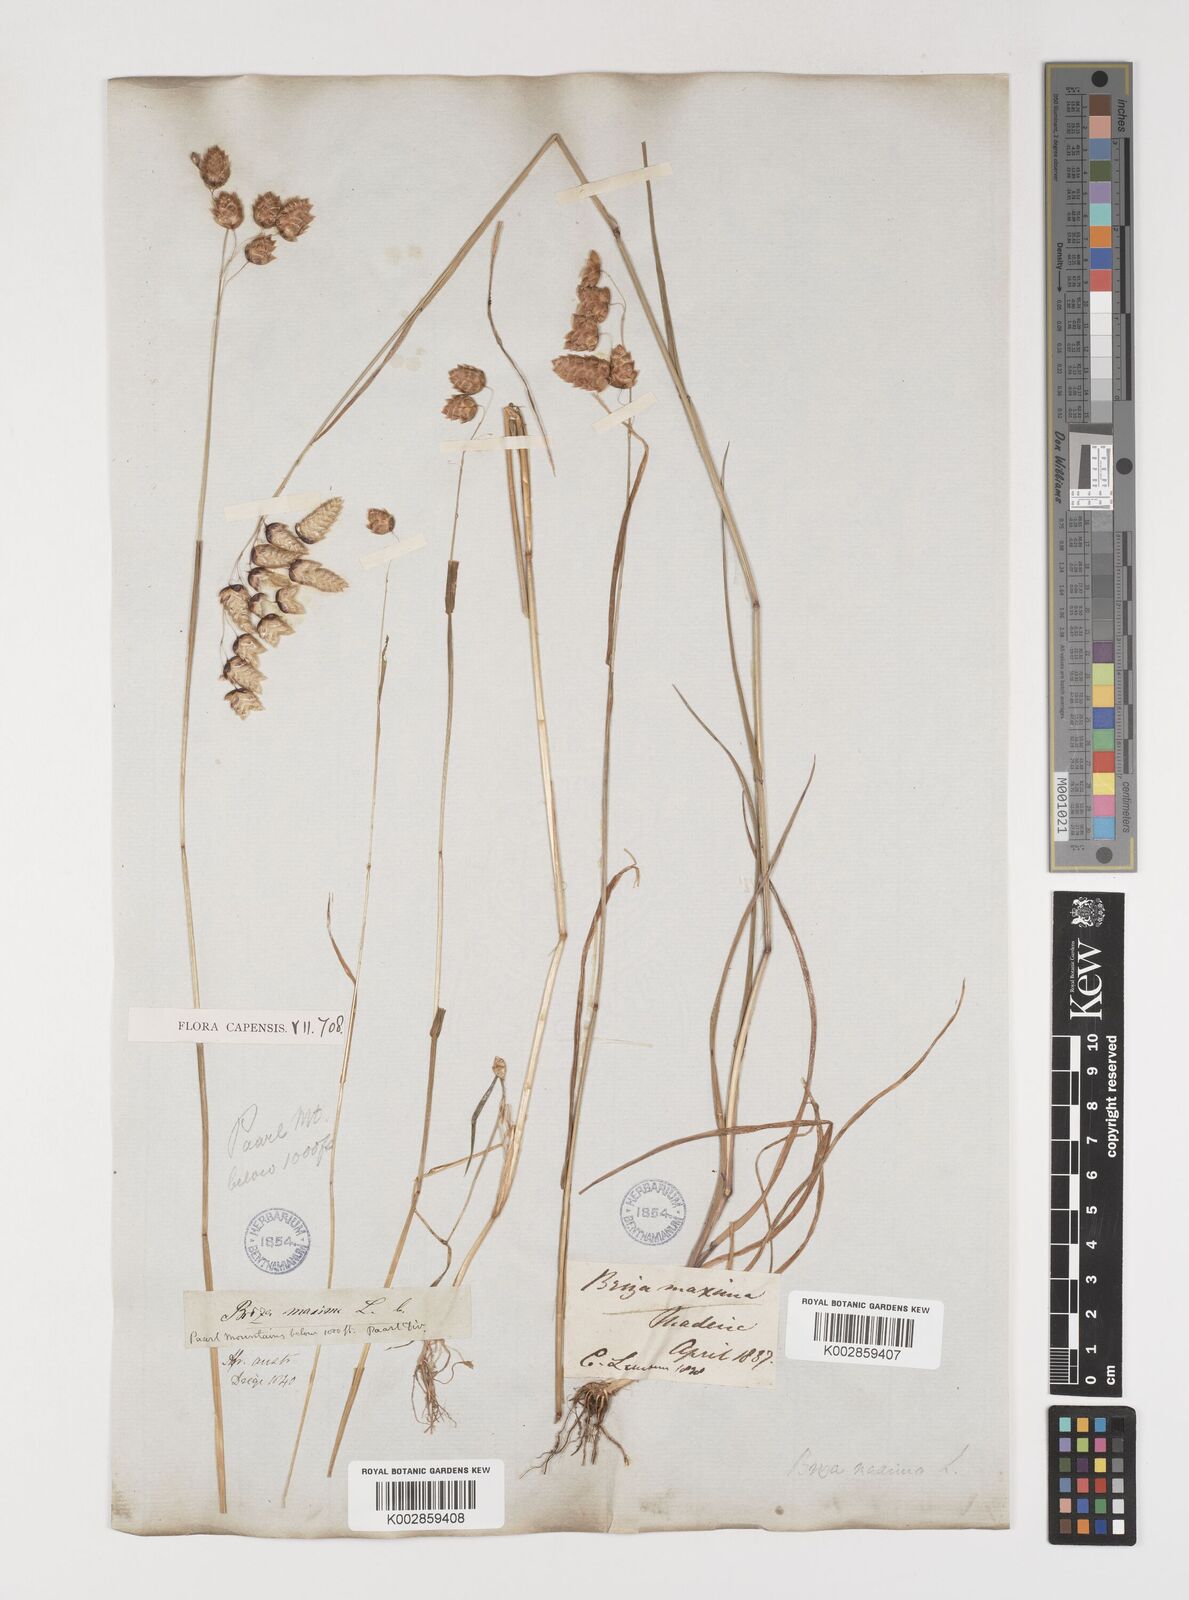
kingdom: Plantae
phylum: Tracheophyta
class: Liliopsida
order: Poales
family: Poaceae
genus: Briza
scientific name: Briza maxima
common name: Big quakinggrass
